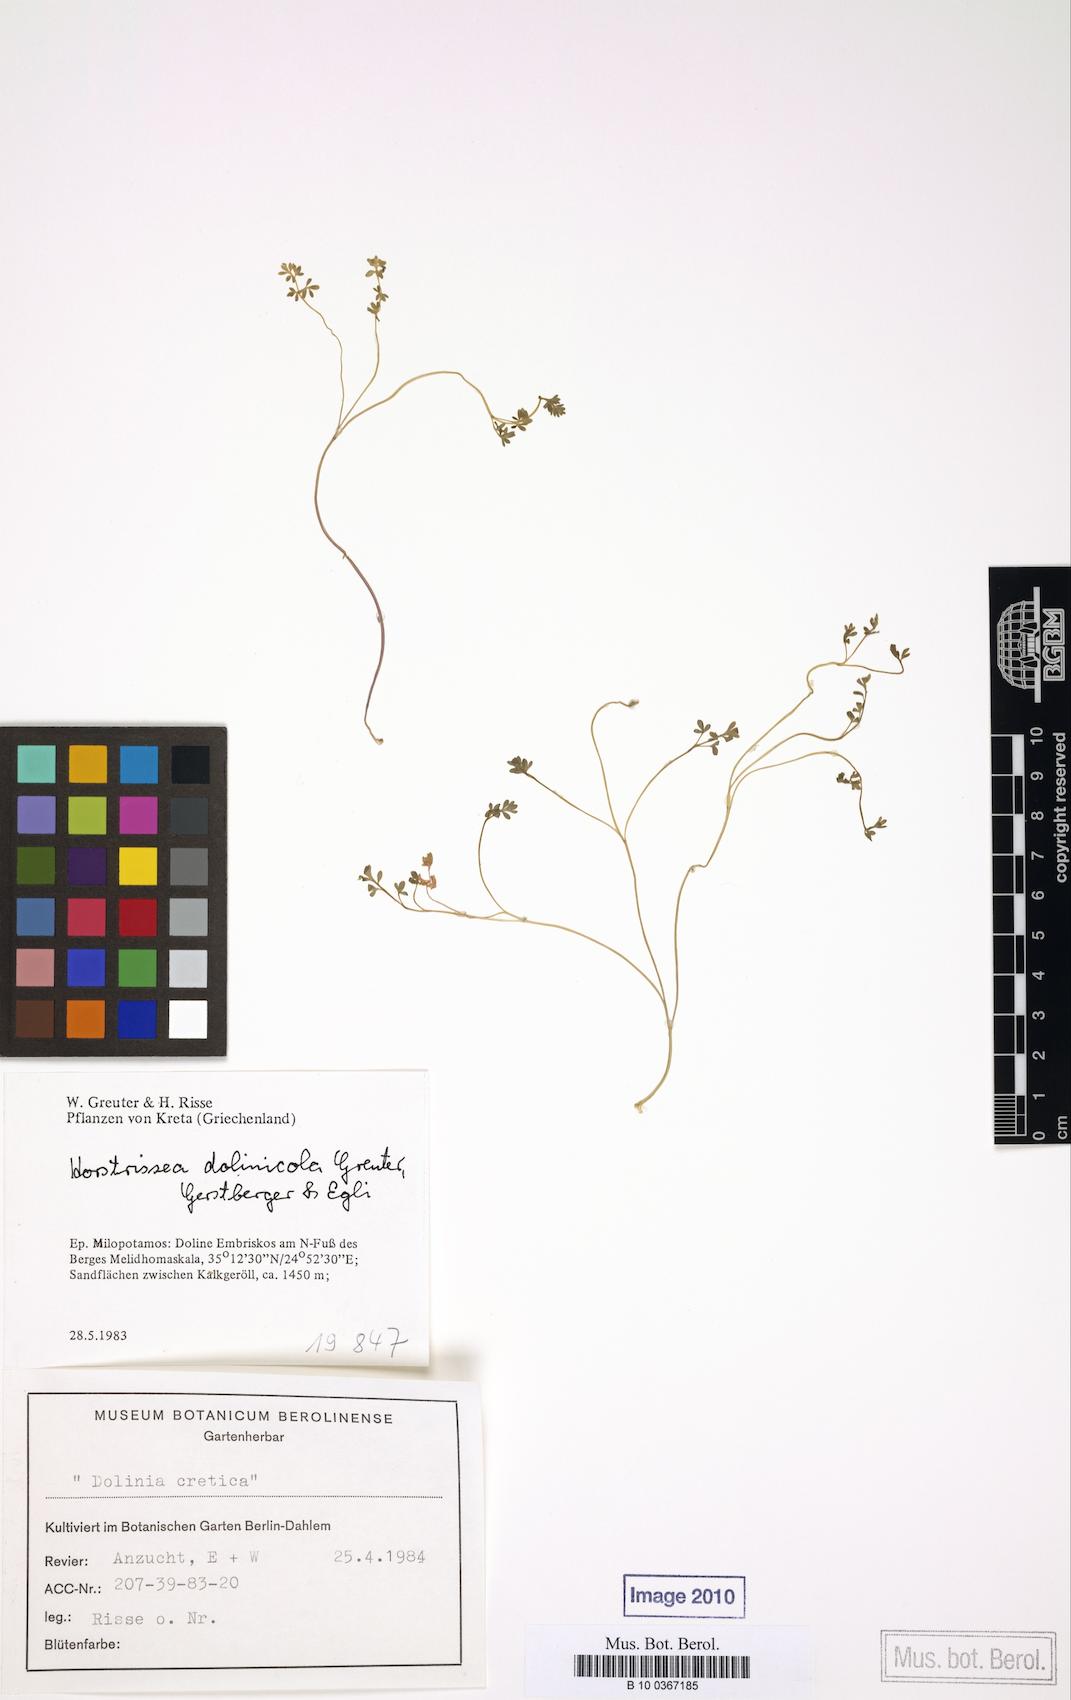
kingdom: Plantae
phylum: Tracheophyta
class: Magnoliopsida
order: Apiales
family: Apiaceae
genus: Horstrissea
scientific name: Horstrissea dolinicola
